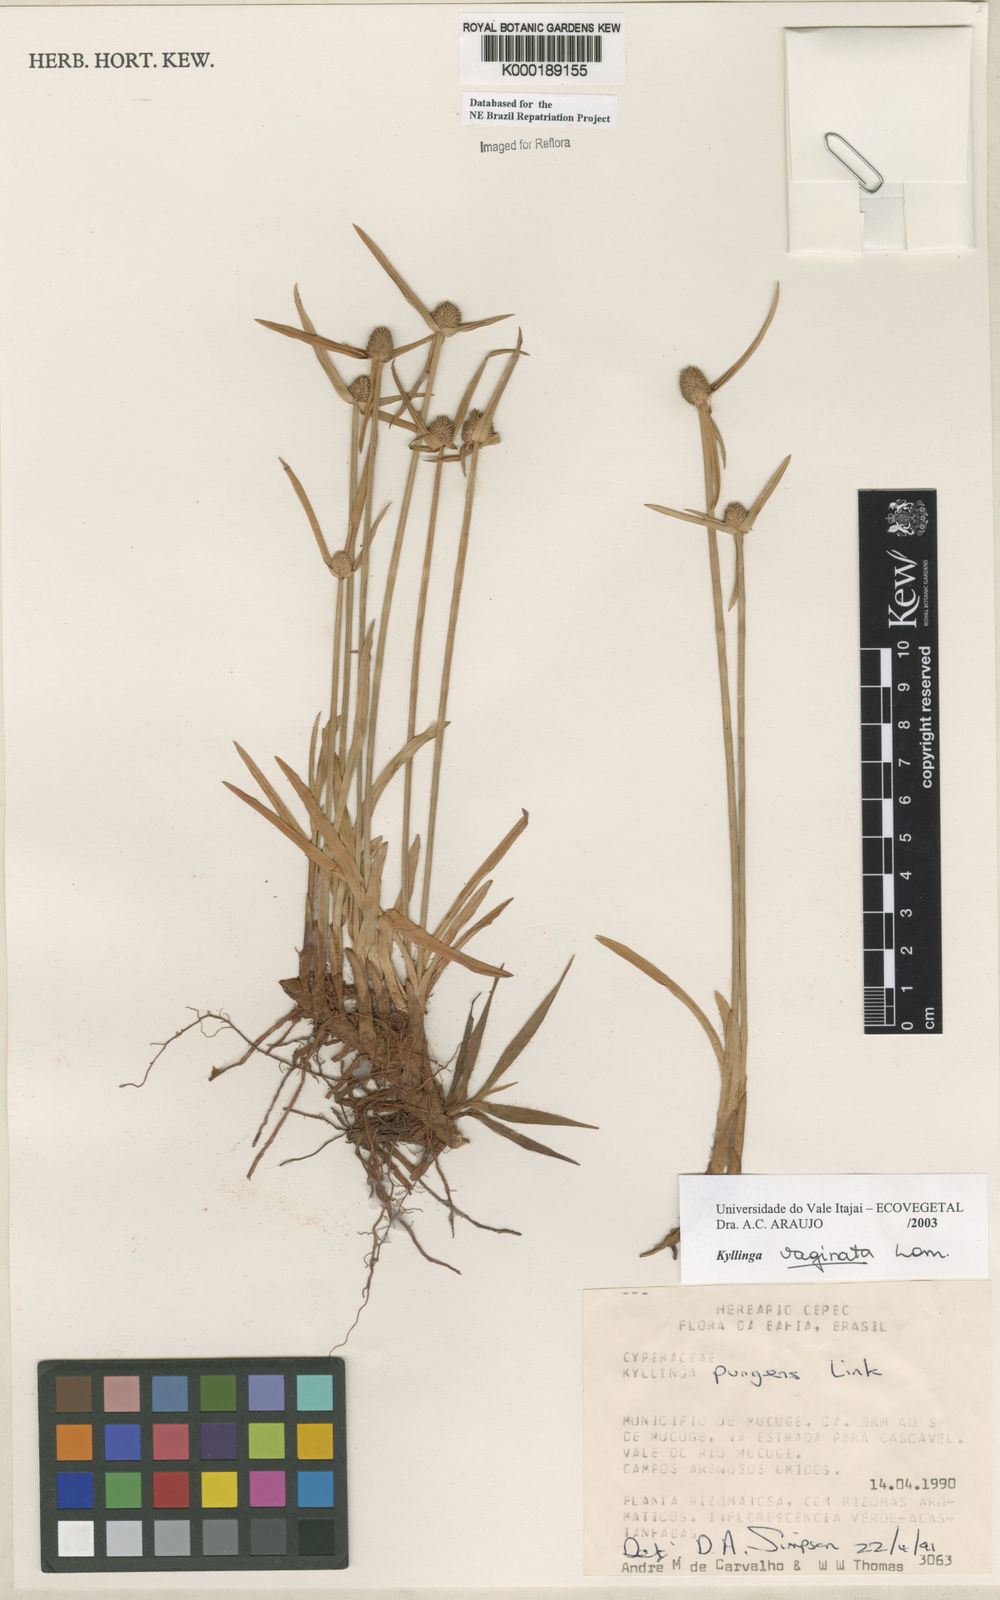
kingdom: Plantae
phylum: Tracheophyta
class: Liliopsida
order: Poales
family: Cyperaceae
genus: Cyperus
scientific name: Cyperus obtusatus
